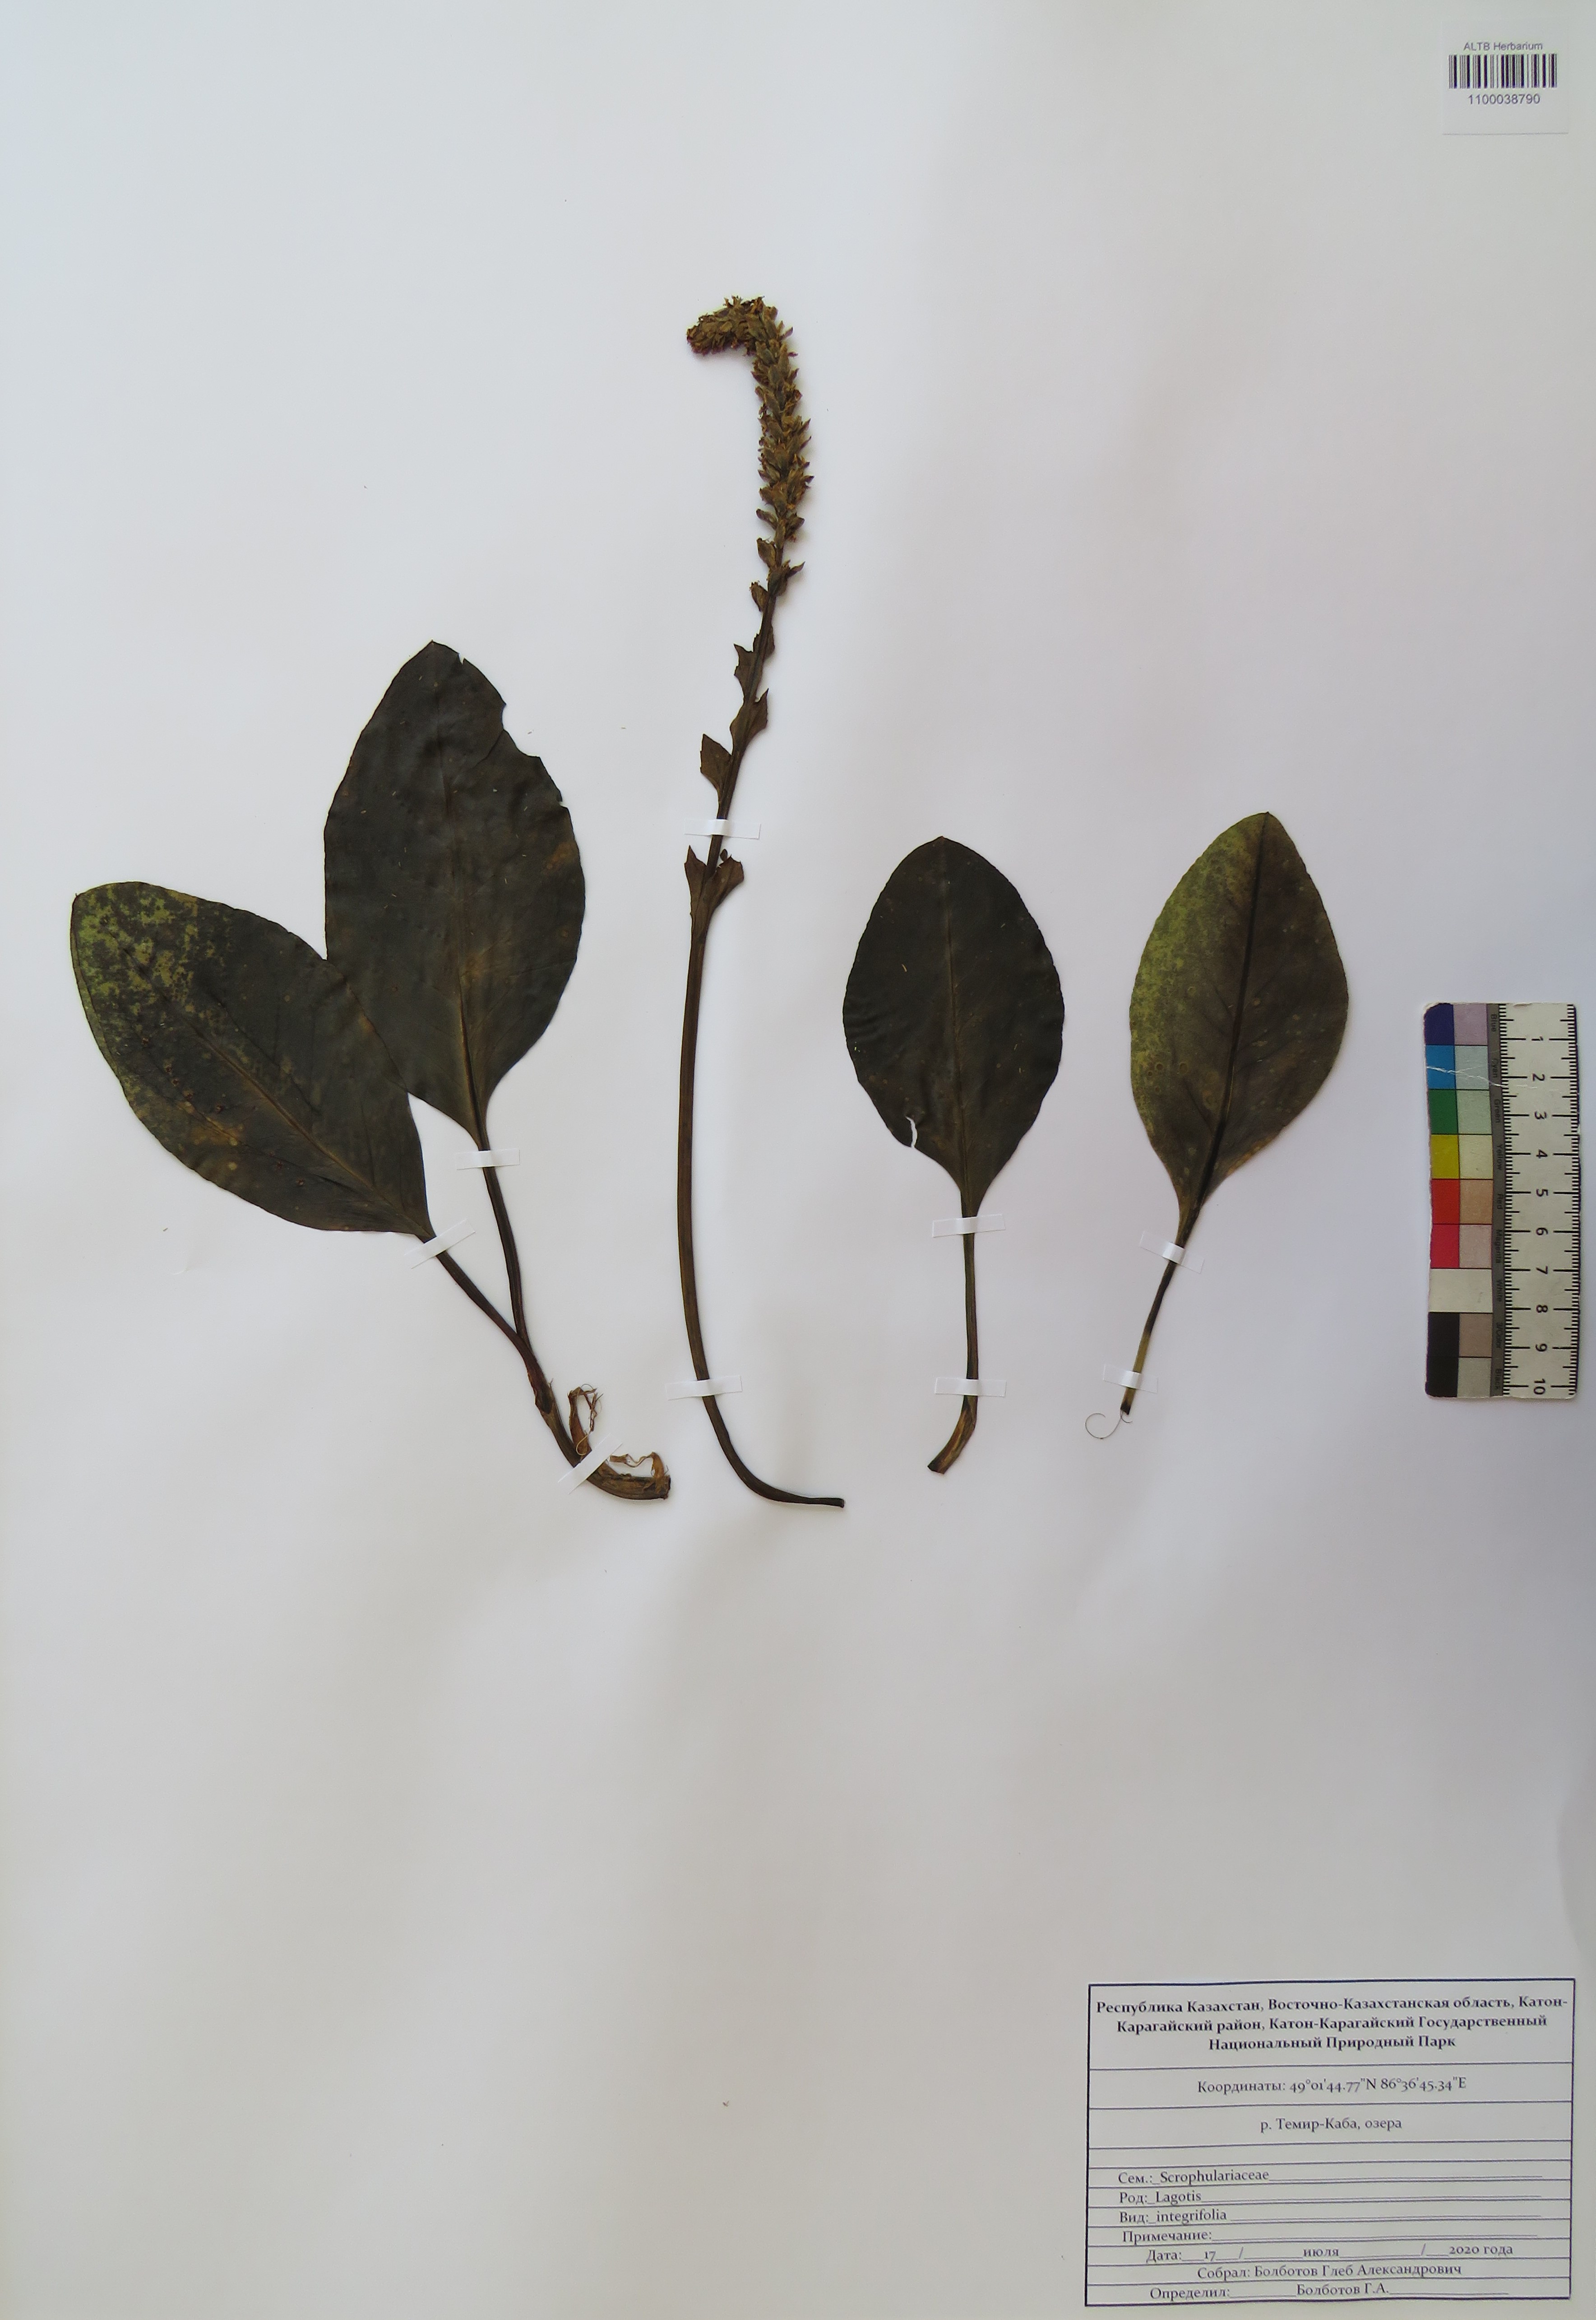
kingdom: Plantae
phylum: Tracheophyta
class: Magnoliopsida
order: Lamiales
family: Plantaginaceae
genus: Lagotis
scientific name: Lagotis integrifolia
